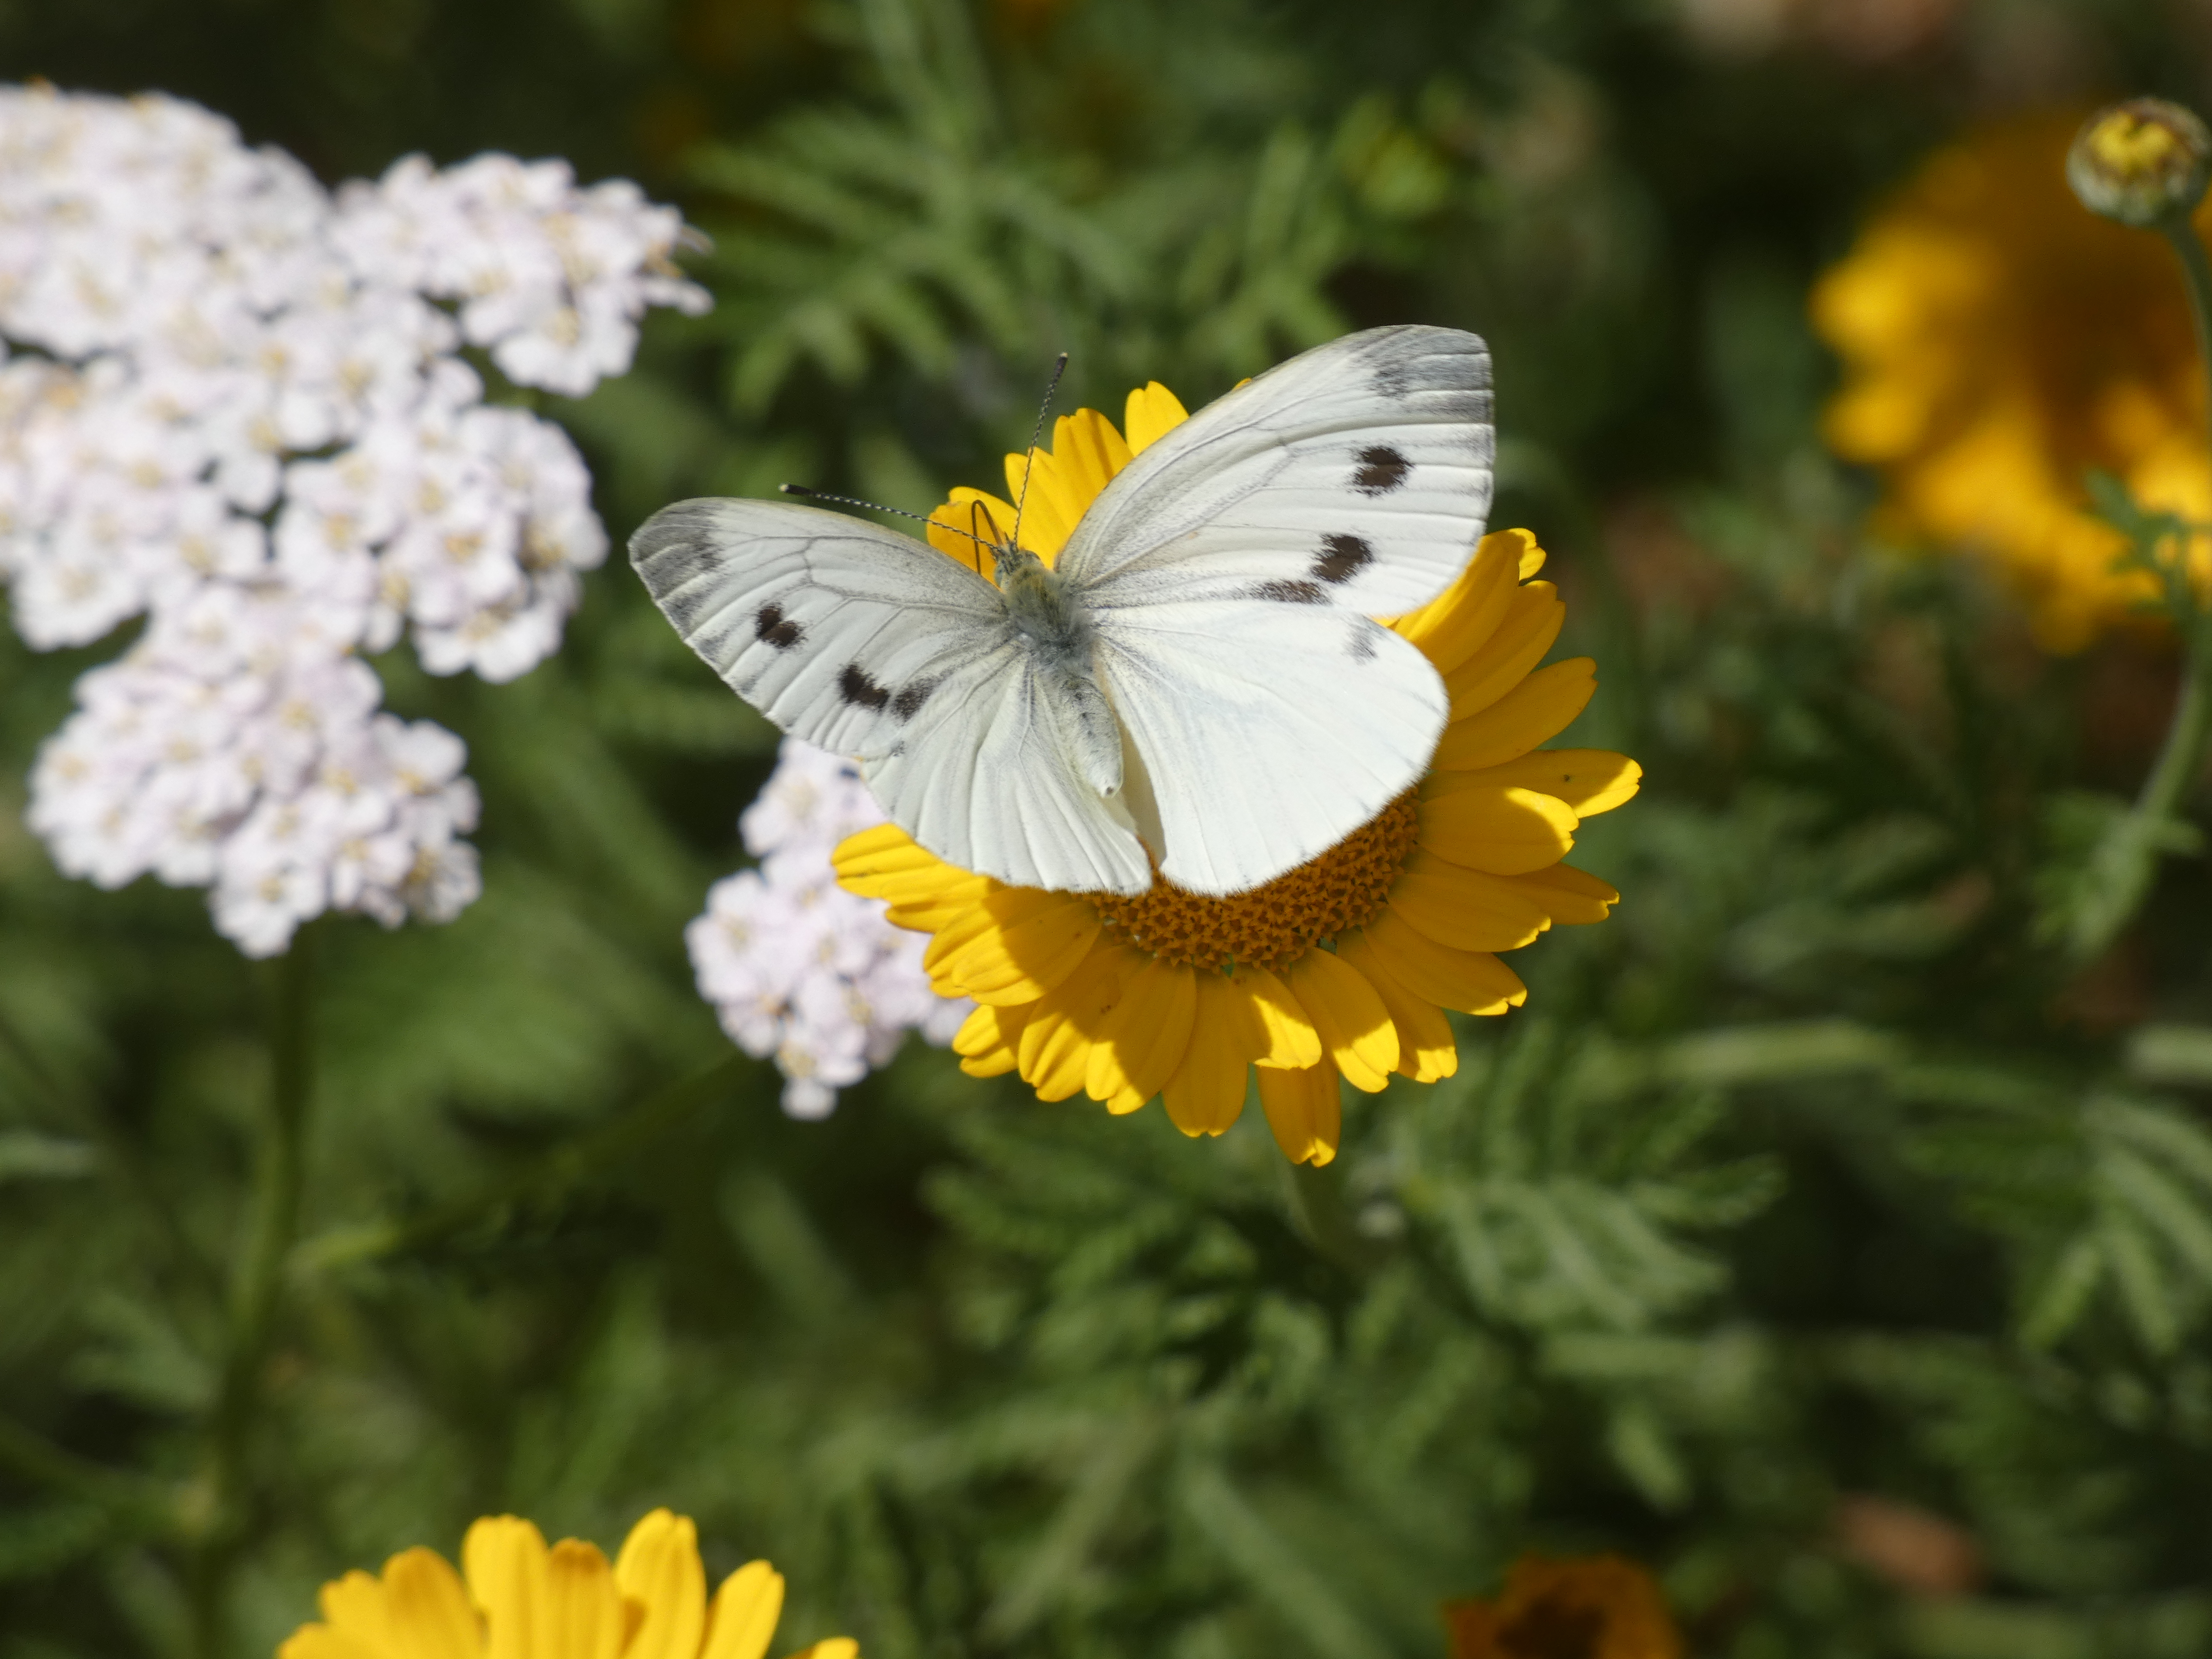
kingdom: Animalia
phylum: Arthropoda
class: Insecta
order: Lepidoptera
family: Pieridae
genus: Pieris
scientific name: Pieris napi
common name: Grønåret kålsommerfugl
